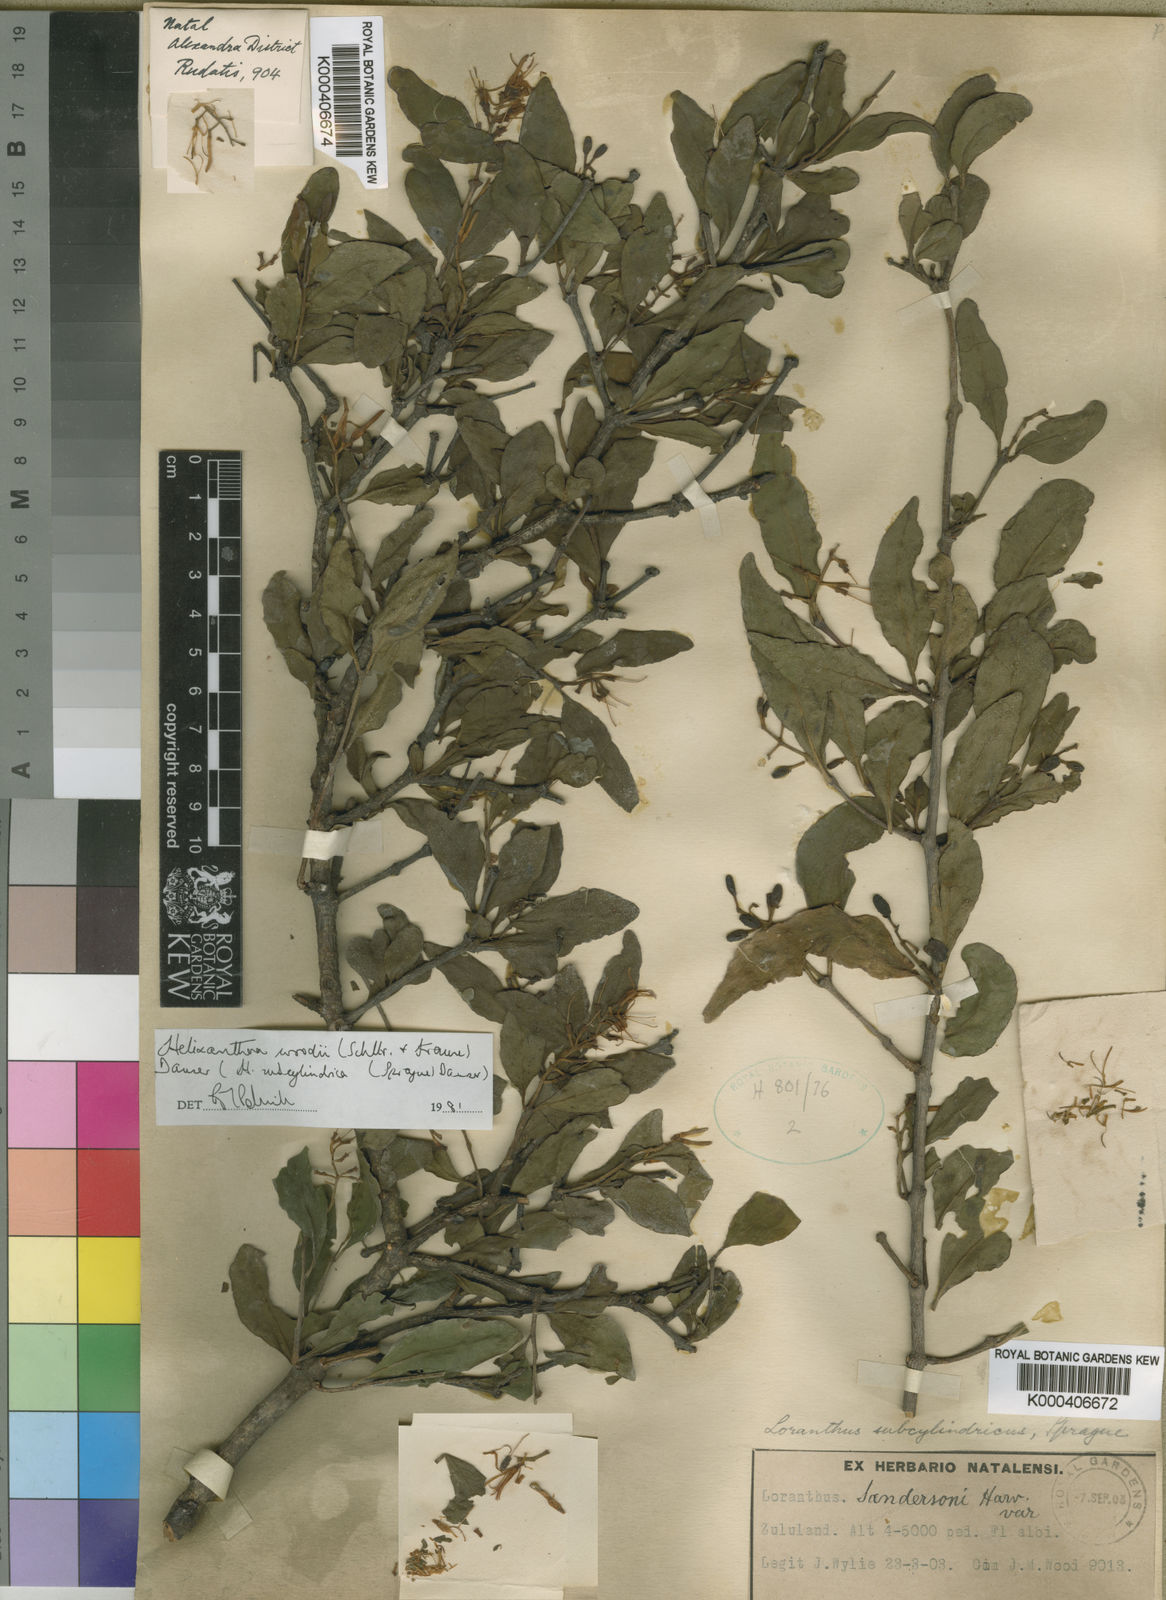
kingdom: Plantae
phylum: Tracheophyta
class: Magnoliopsida
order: Santalales
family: Loranthaceae
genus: Helixanthera
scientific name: Helixanthera woodii
